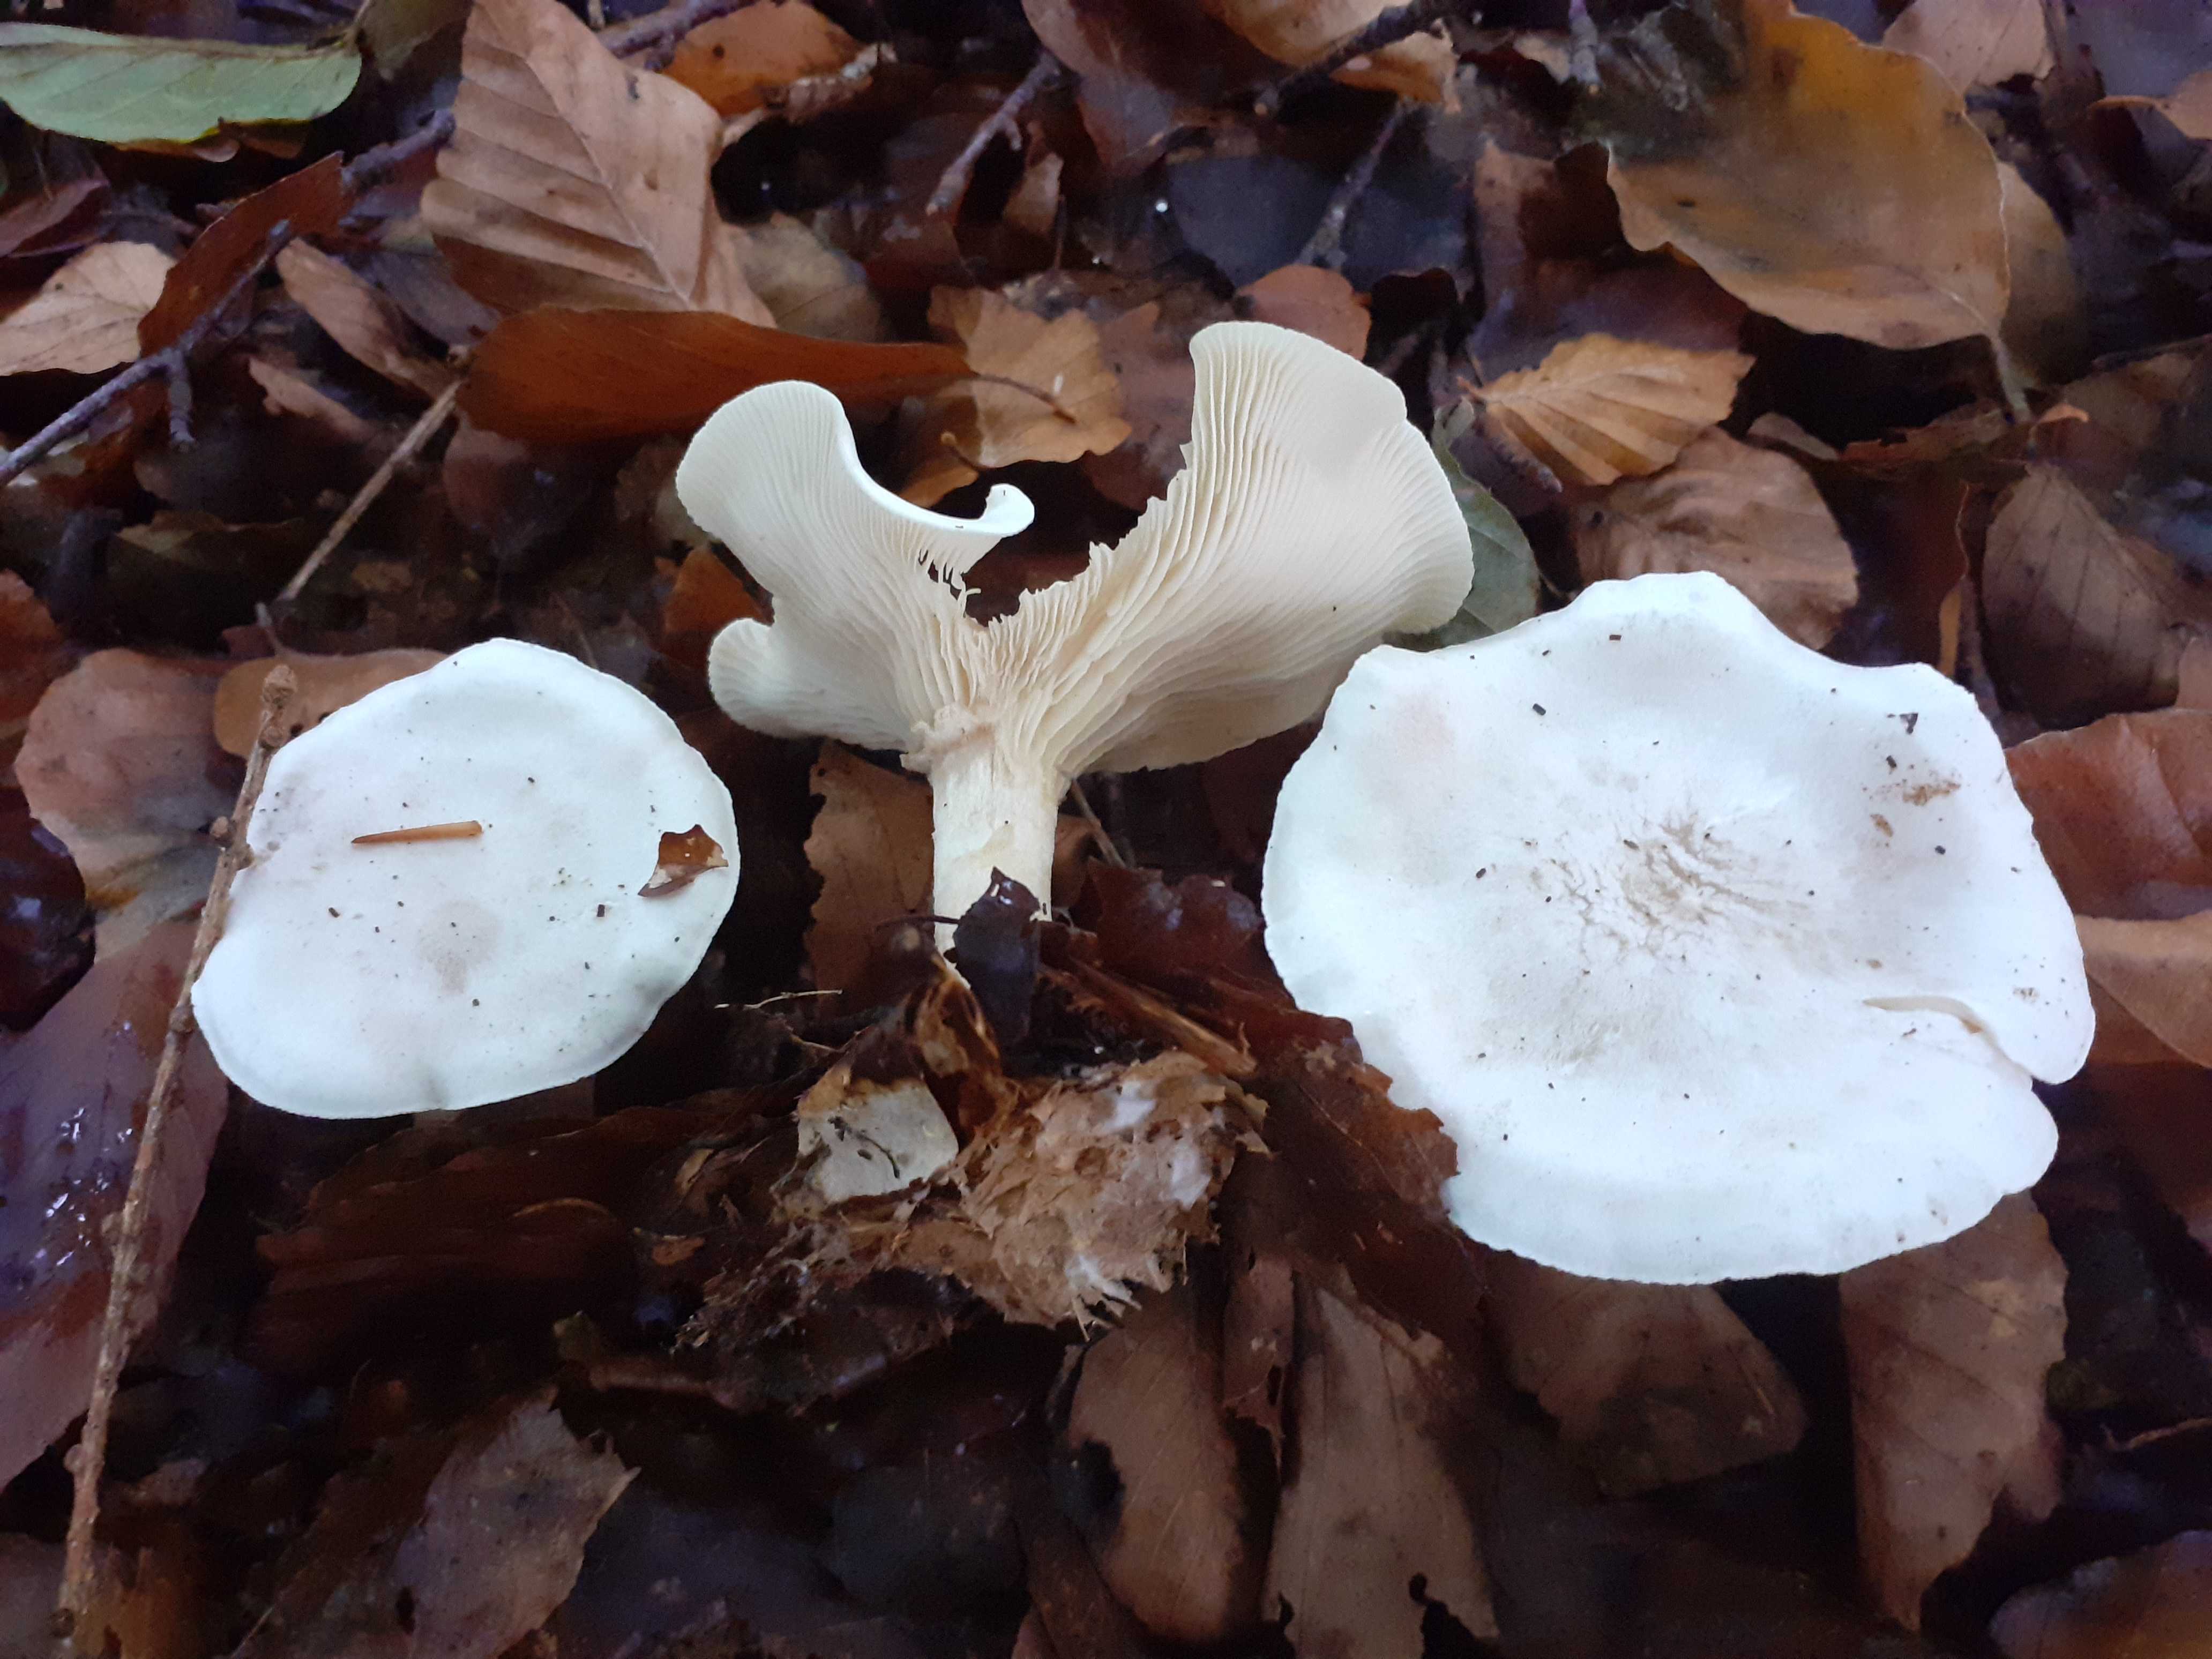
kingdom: Fungi
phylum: Basidiomycota
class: Agaricomycetes
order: Agaricales
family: Tricholomataceae
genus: Clitocybe
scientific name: Clitocybe phyllophila
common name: løv-tragthat
